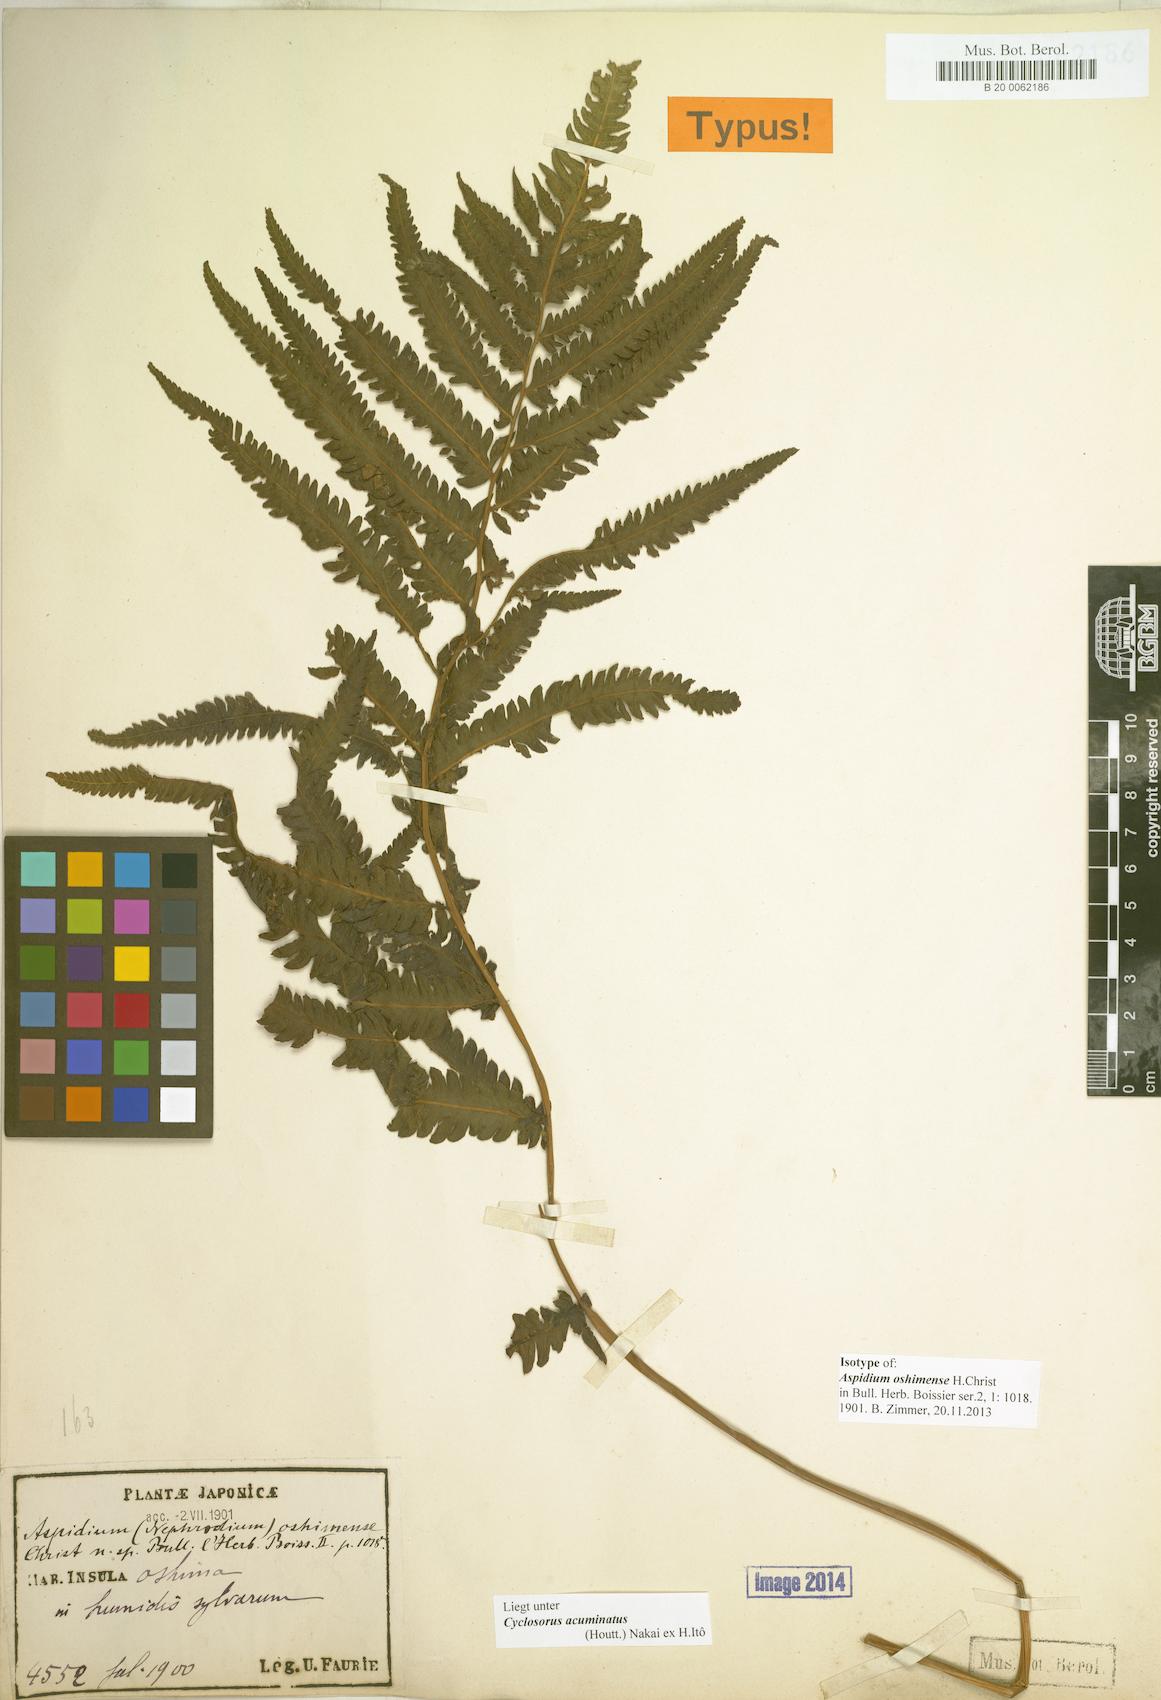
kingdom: Plantae
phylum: Tracheophyta
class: Polypodiopsida
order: Polypodiales
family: Athyriaceae
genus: Deparia
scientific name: Deparia petersenii
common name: Japanese false spleenwort
